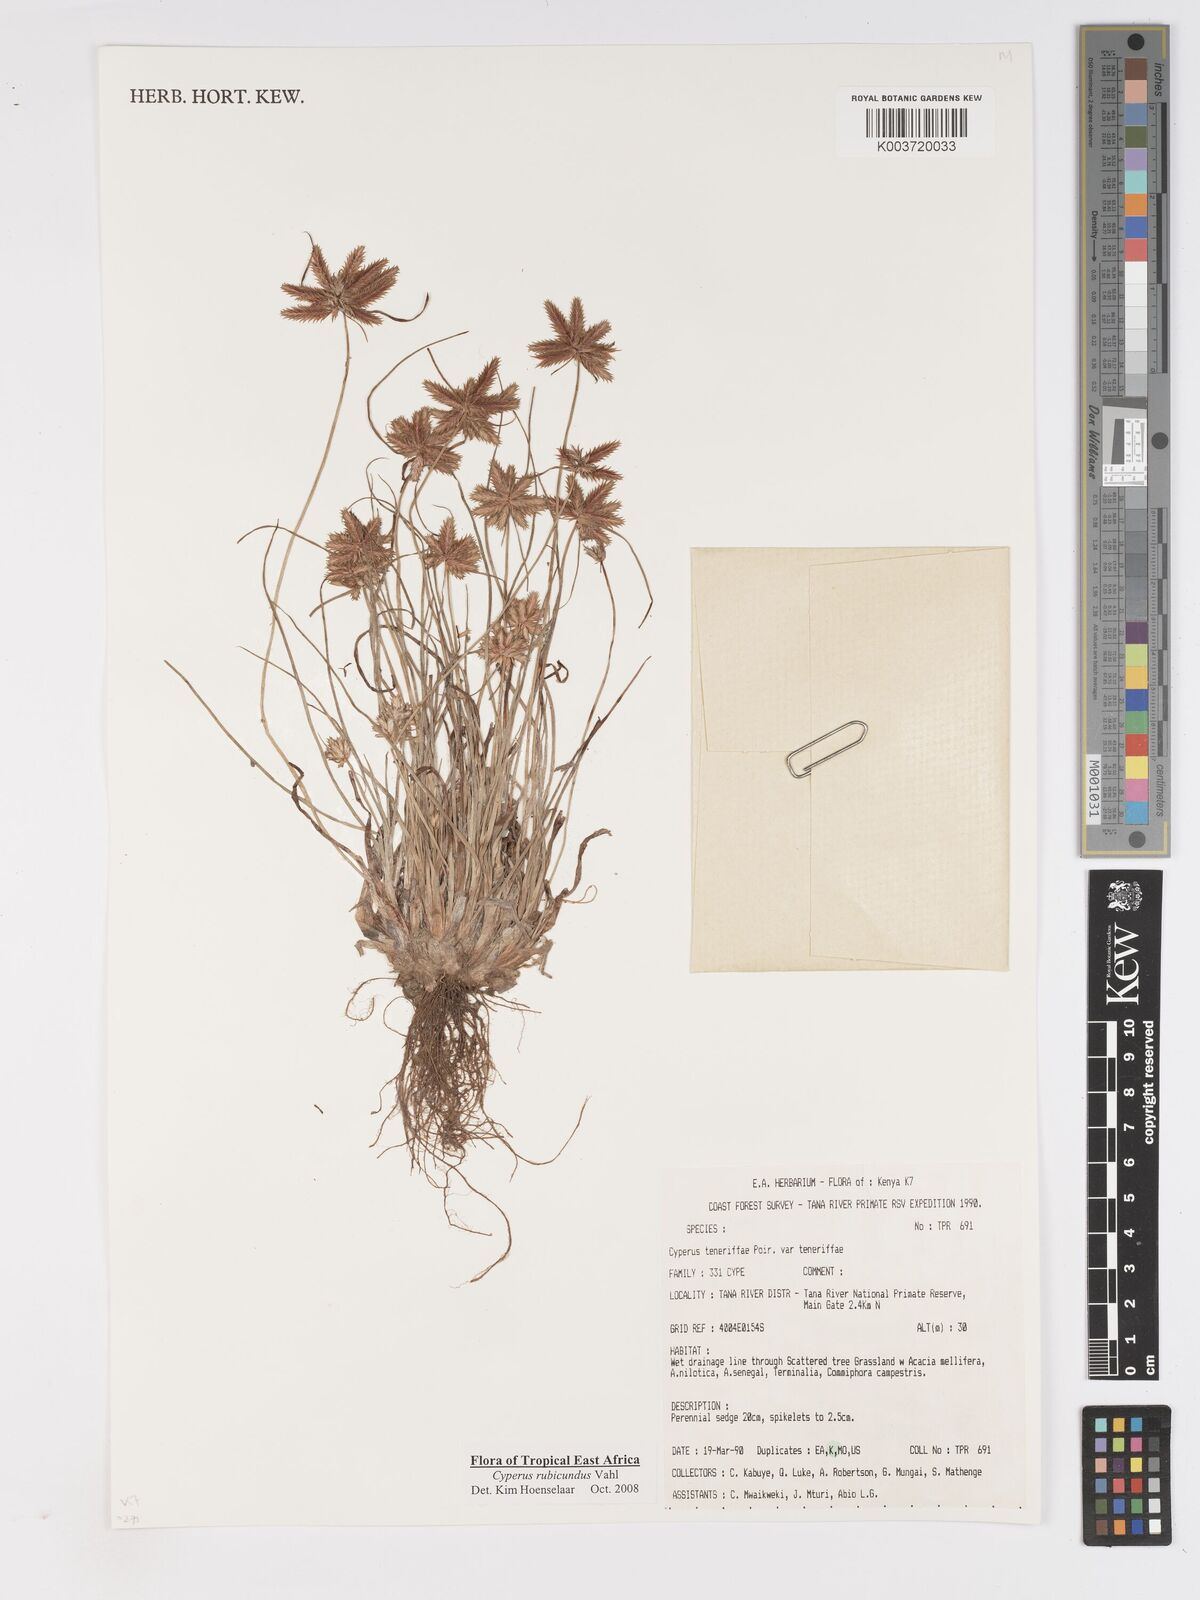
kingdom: Plantae
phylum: Tracheophyta
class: Liliopsida
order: Poales
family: Cyperaceae
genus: Cyperus
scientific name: Cyperus rubicundus
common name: Coco-grass
